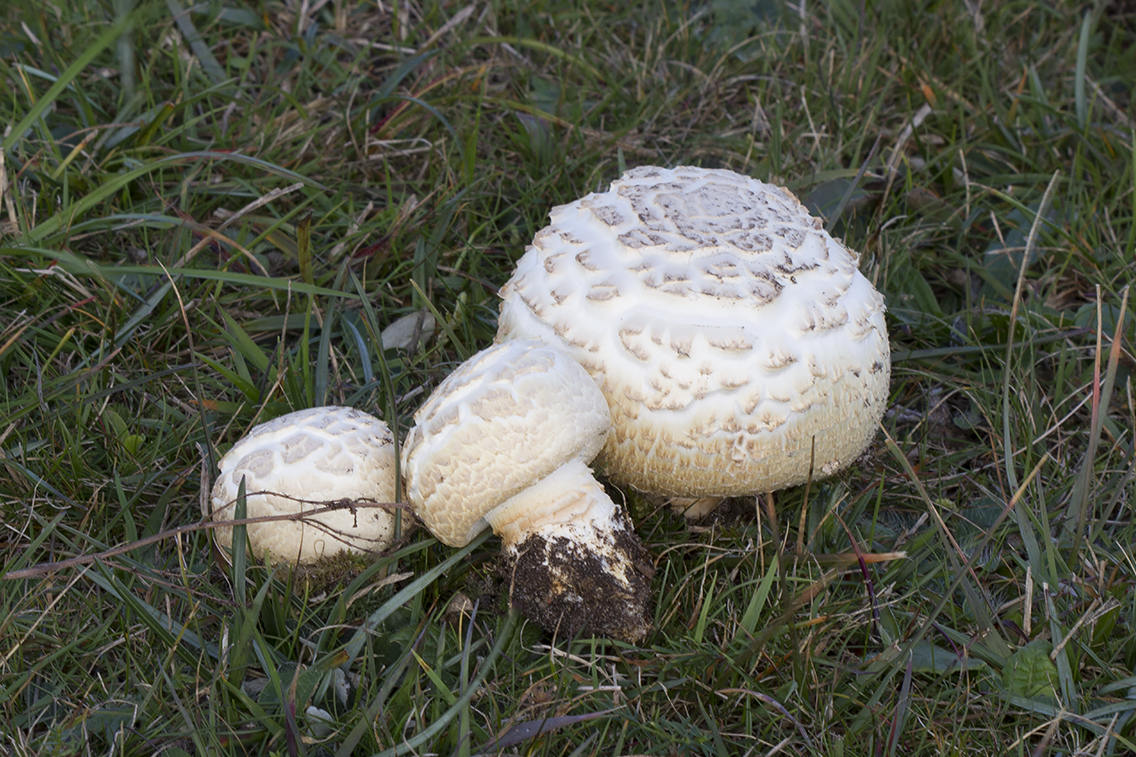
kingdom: Fungi
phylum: Basidiomycota
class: Agaricomycetes
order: Agaricales
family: Agaricaceae
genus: Agaricus
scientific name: Agaricus crocodilinus
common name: landsby-champignon
